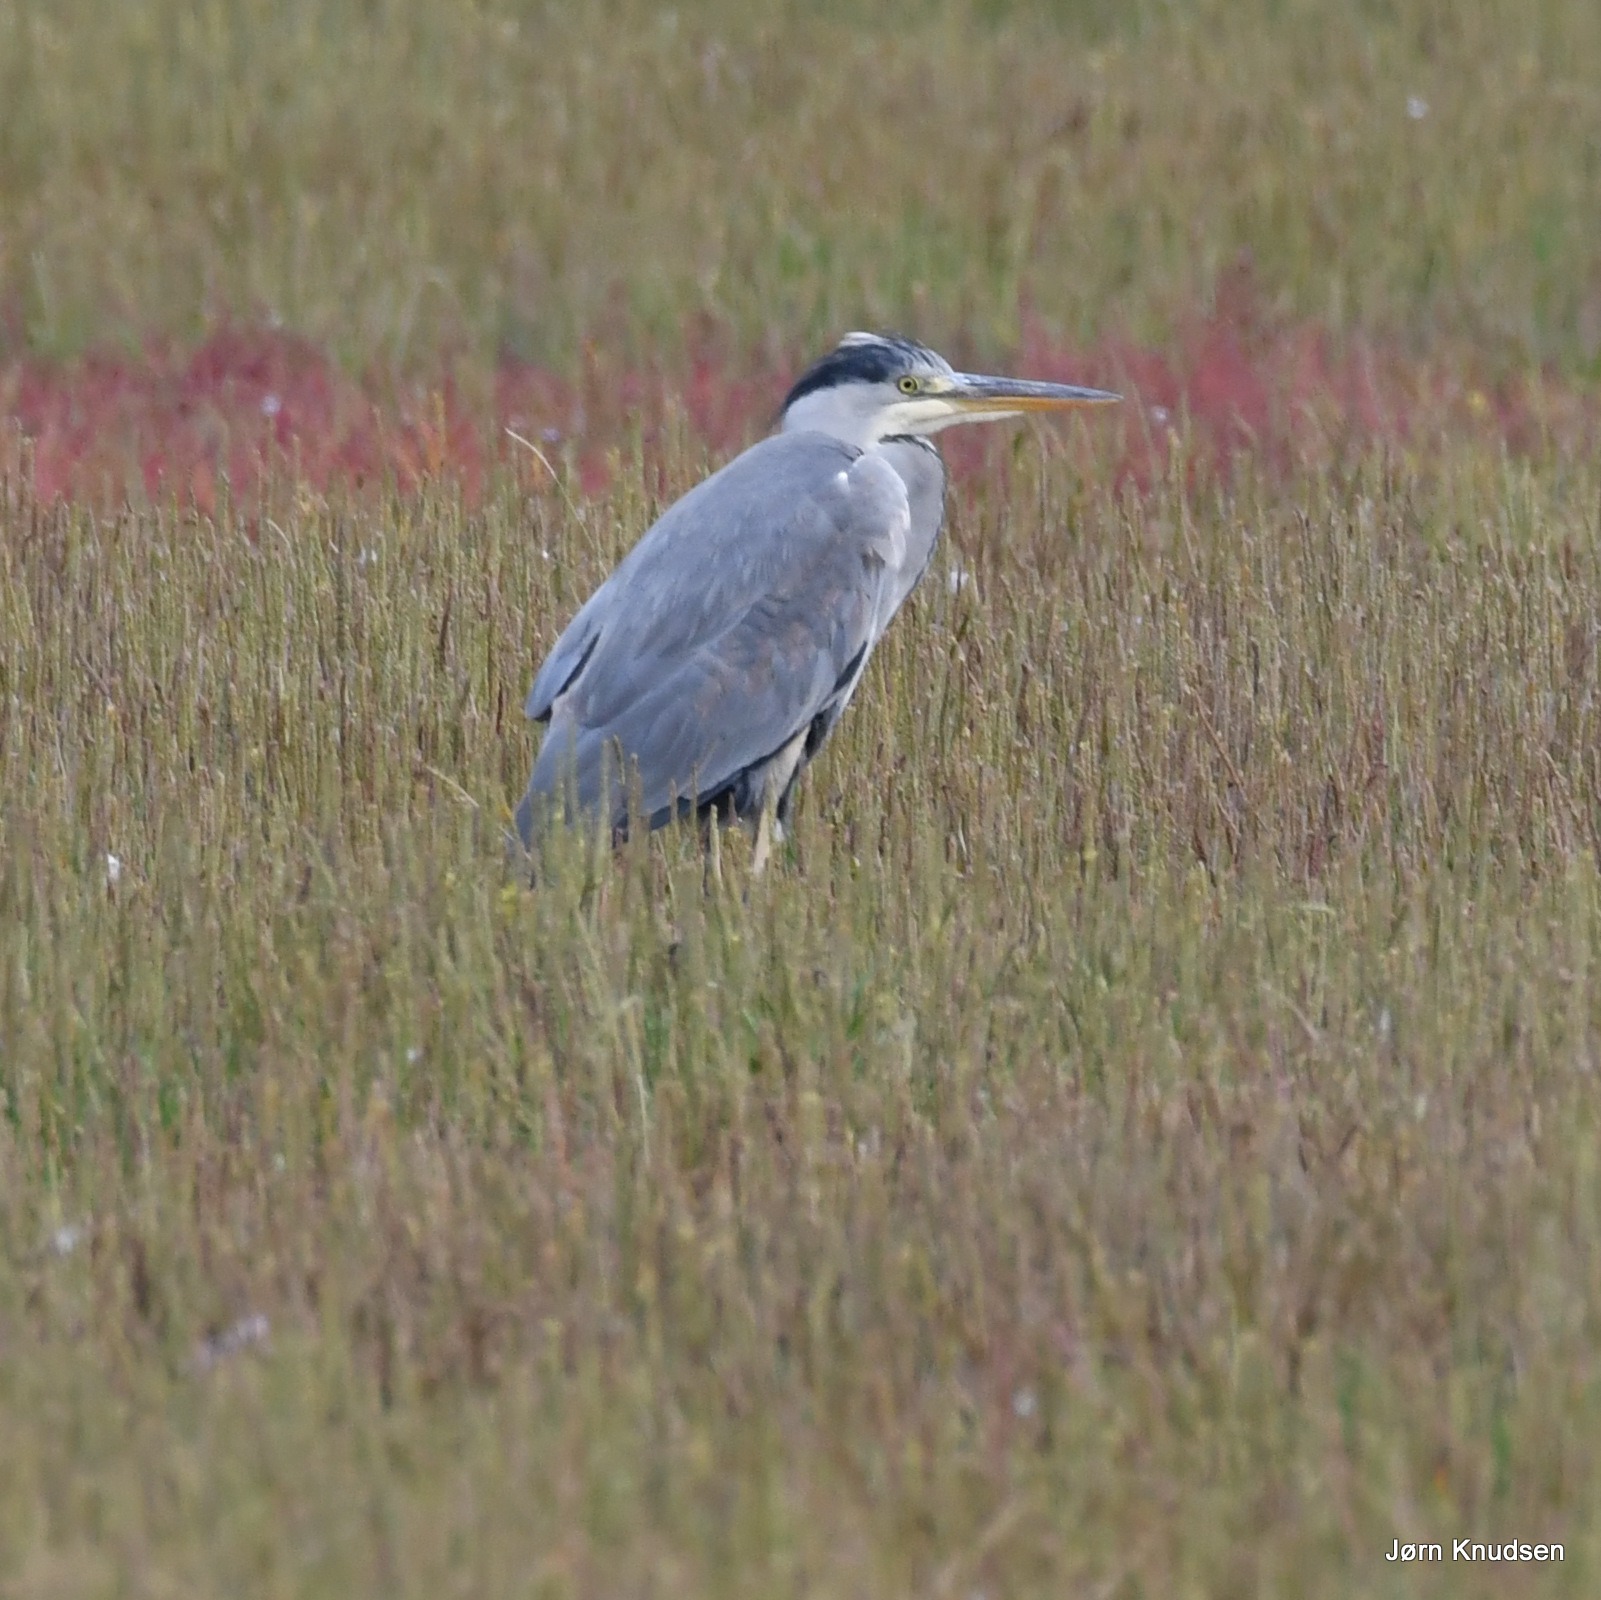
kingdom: Animalia
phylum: Chordata
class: Aves
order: Pelecaniformes
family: Ardeidae
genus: Ardea
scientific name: Ardea cinerea
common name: Fiskehejre
